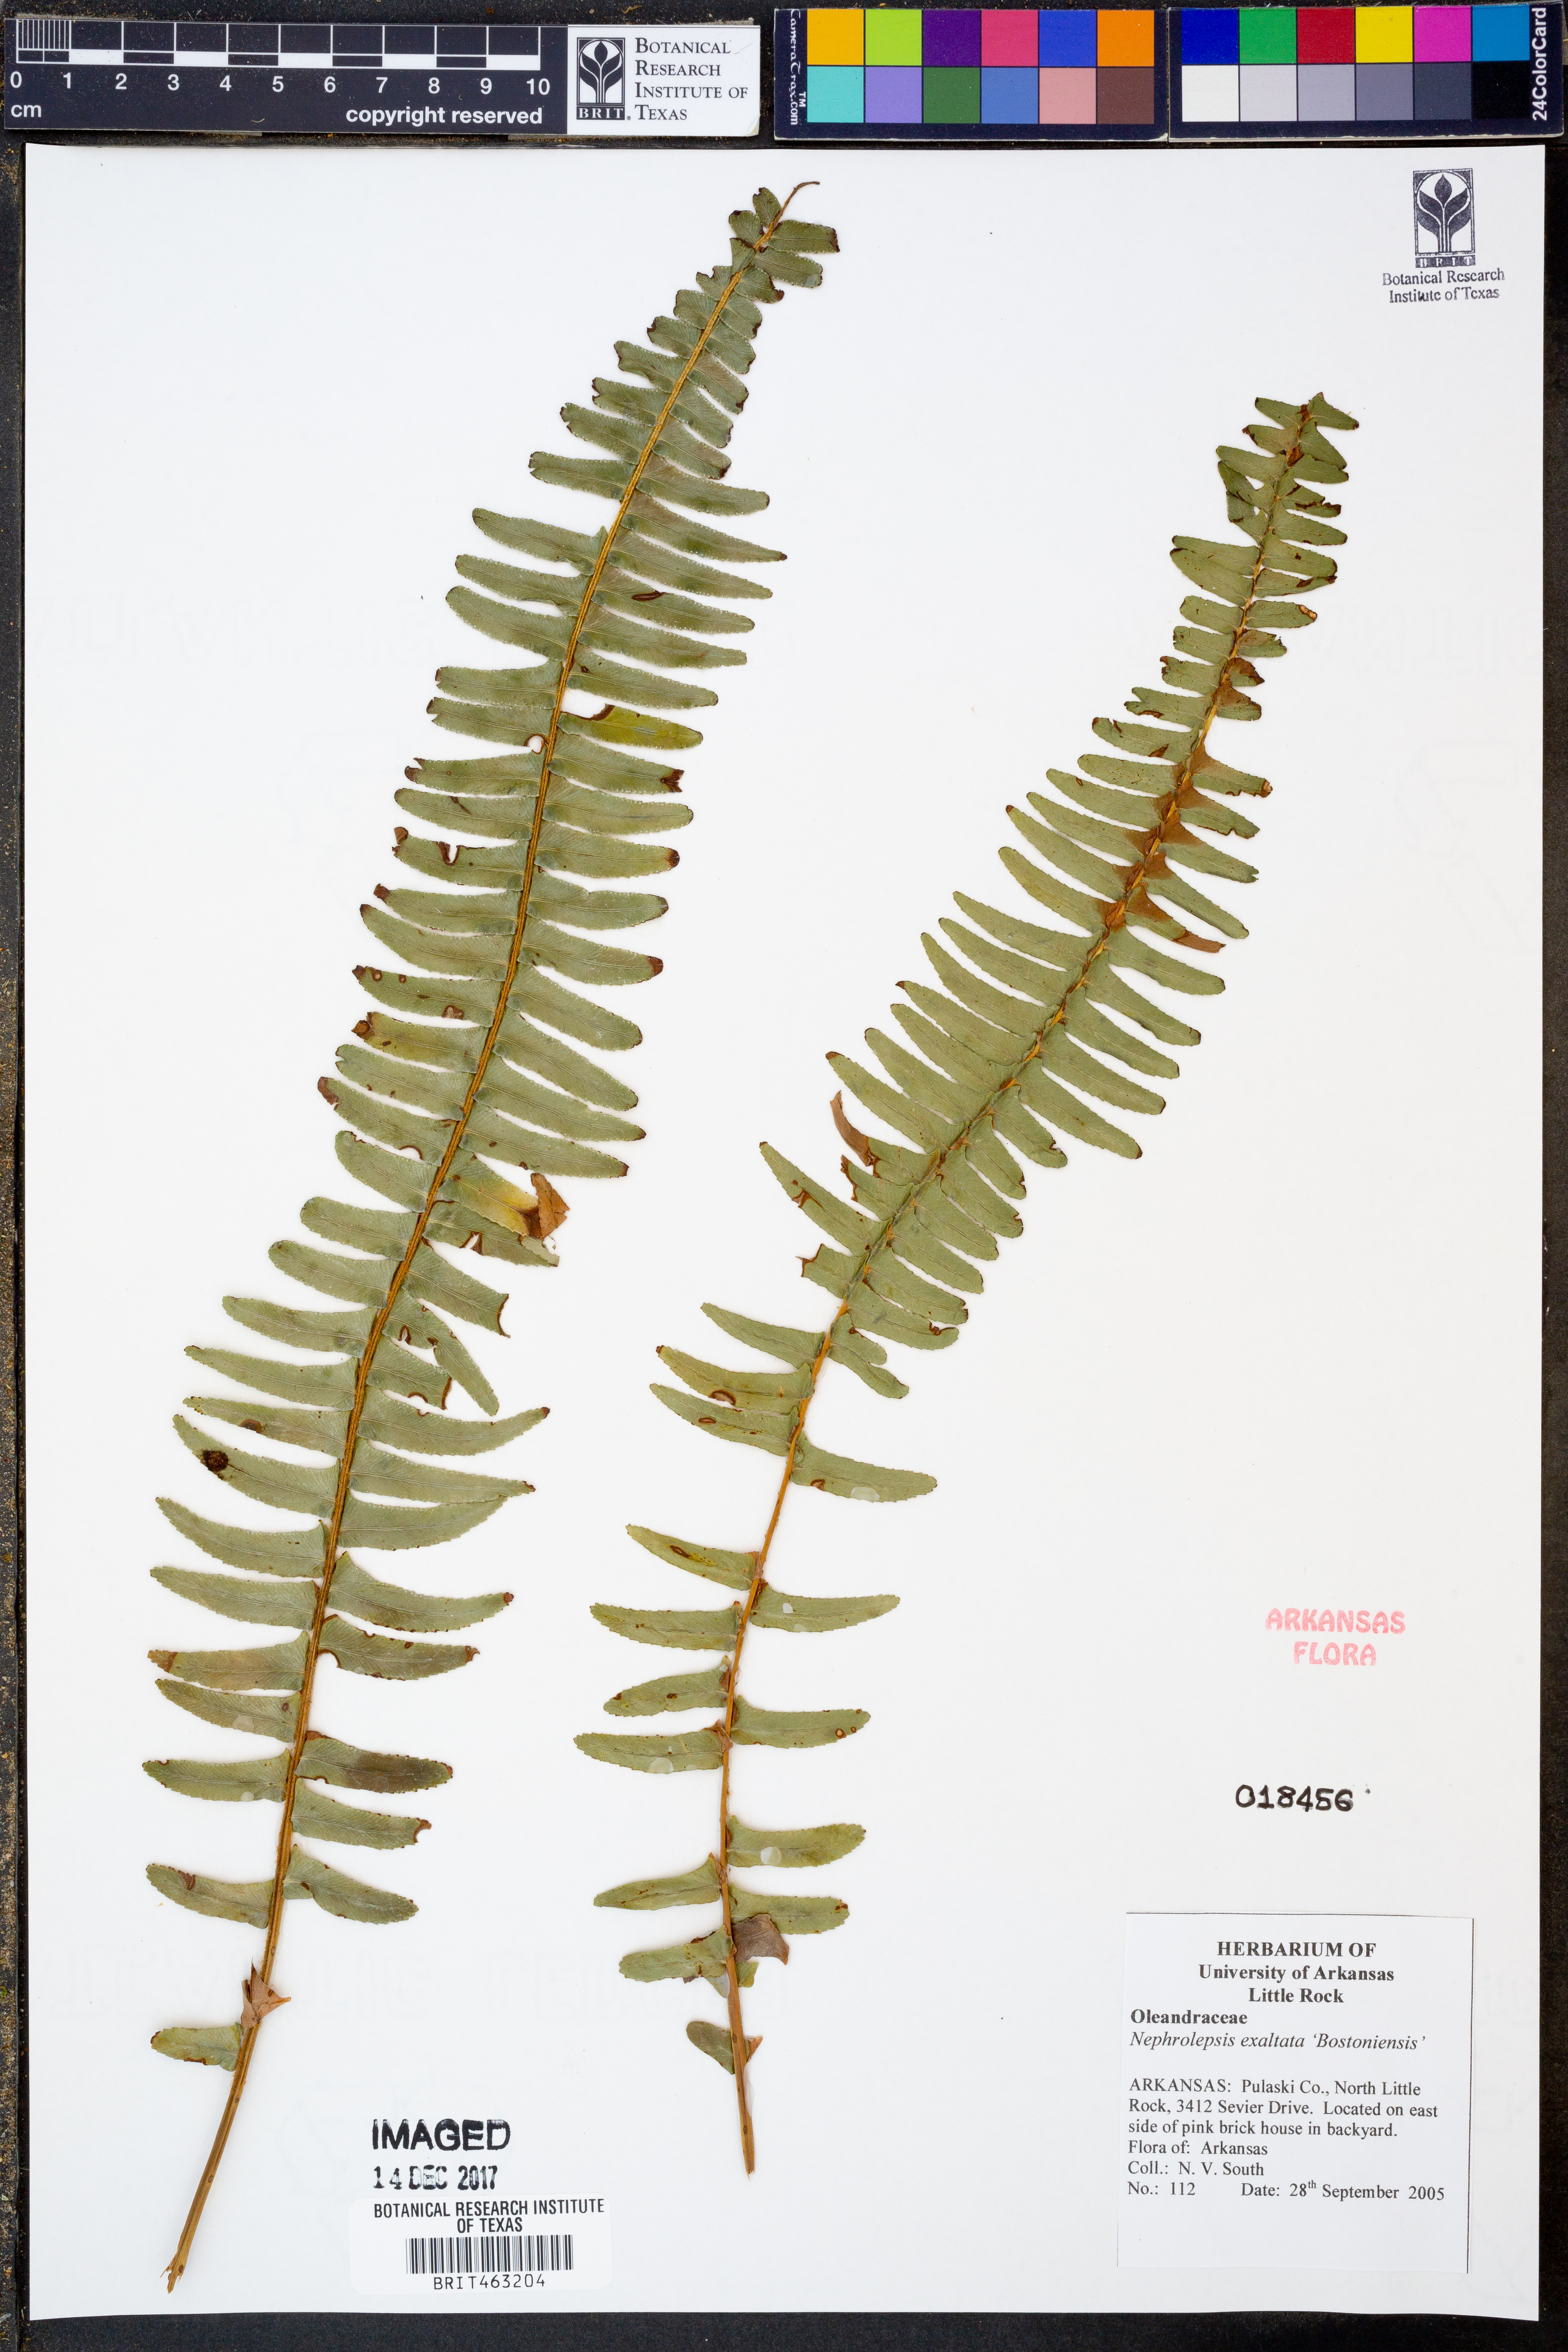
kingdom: Plantae
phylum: Tracheophyta
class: Polypodiopsida
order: Polypodiales
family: Nephrolepidaceae
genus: Nephrolepis
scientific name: Nephrolepis exaltata
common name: Sword fern
